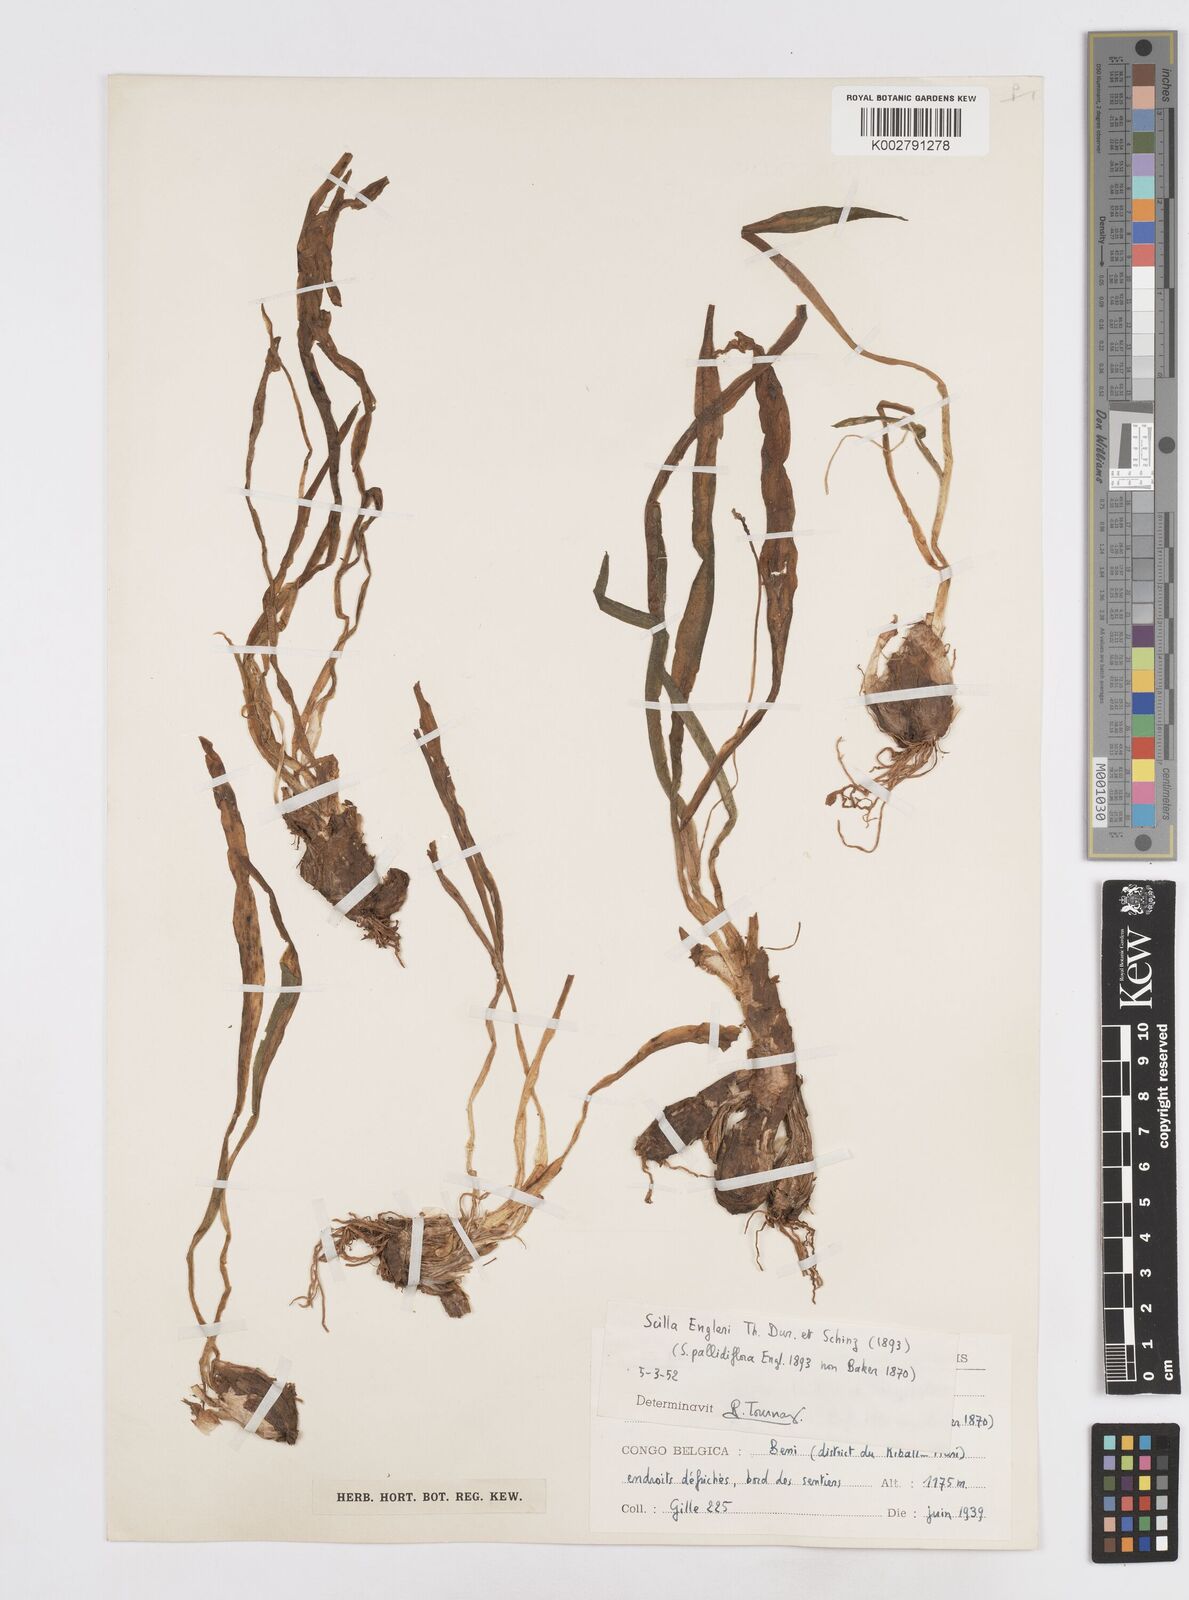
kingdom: Plantae
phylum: Tracheophyta
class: Liliopsida
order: Asparagales
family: Asparagaceae
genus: Scilla
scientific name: Scilla engleri
